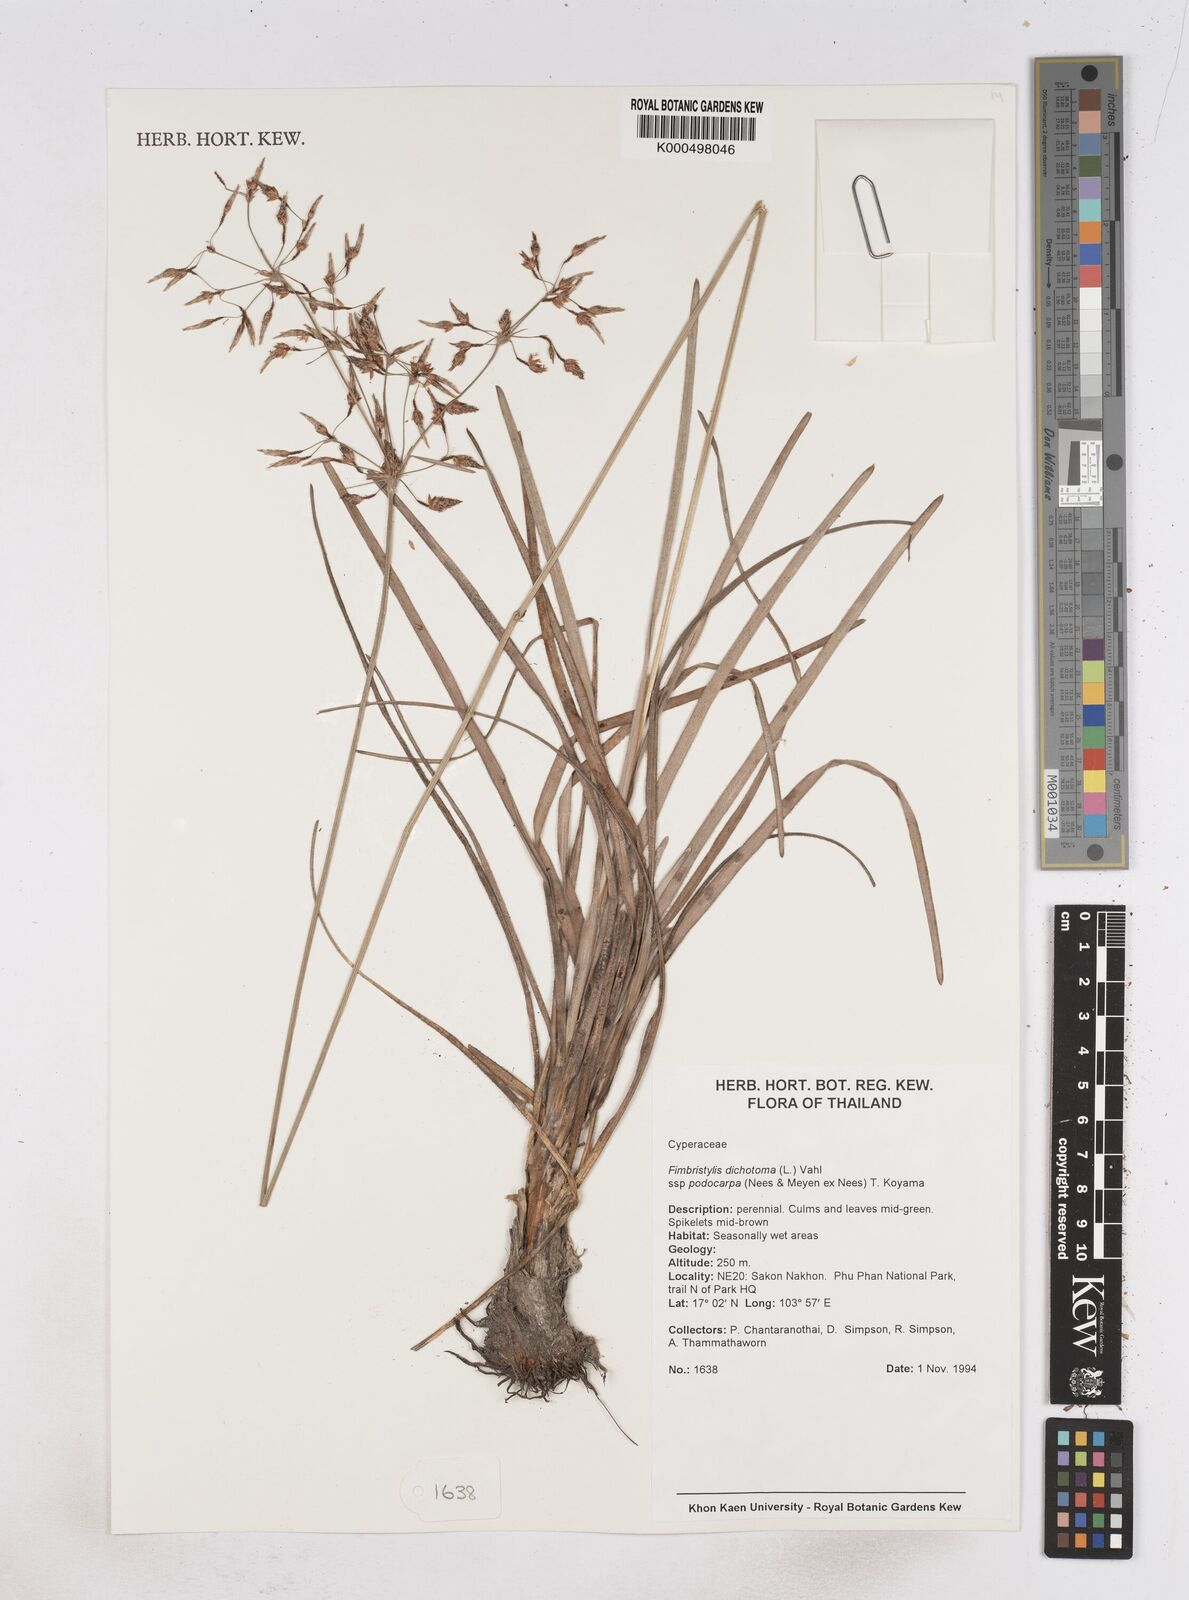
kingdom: Plantae
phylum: Tracheophyta
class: Liliopsida
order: Poales
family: Cyperaceae
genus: Fimbristylis
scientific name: Fimbristylis dichotoma
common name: Forked fimbry
